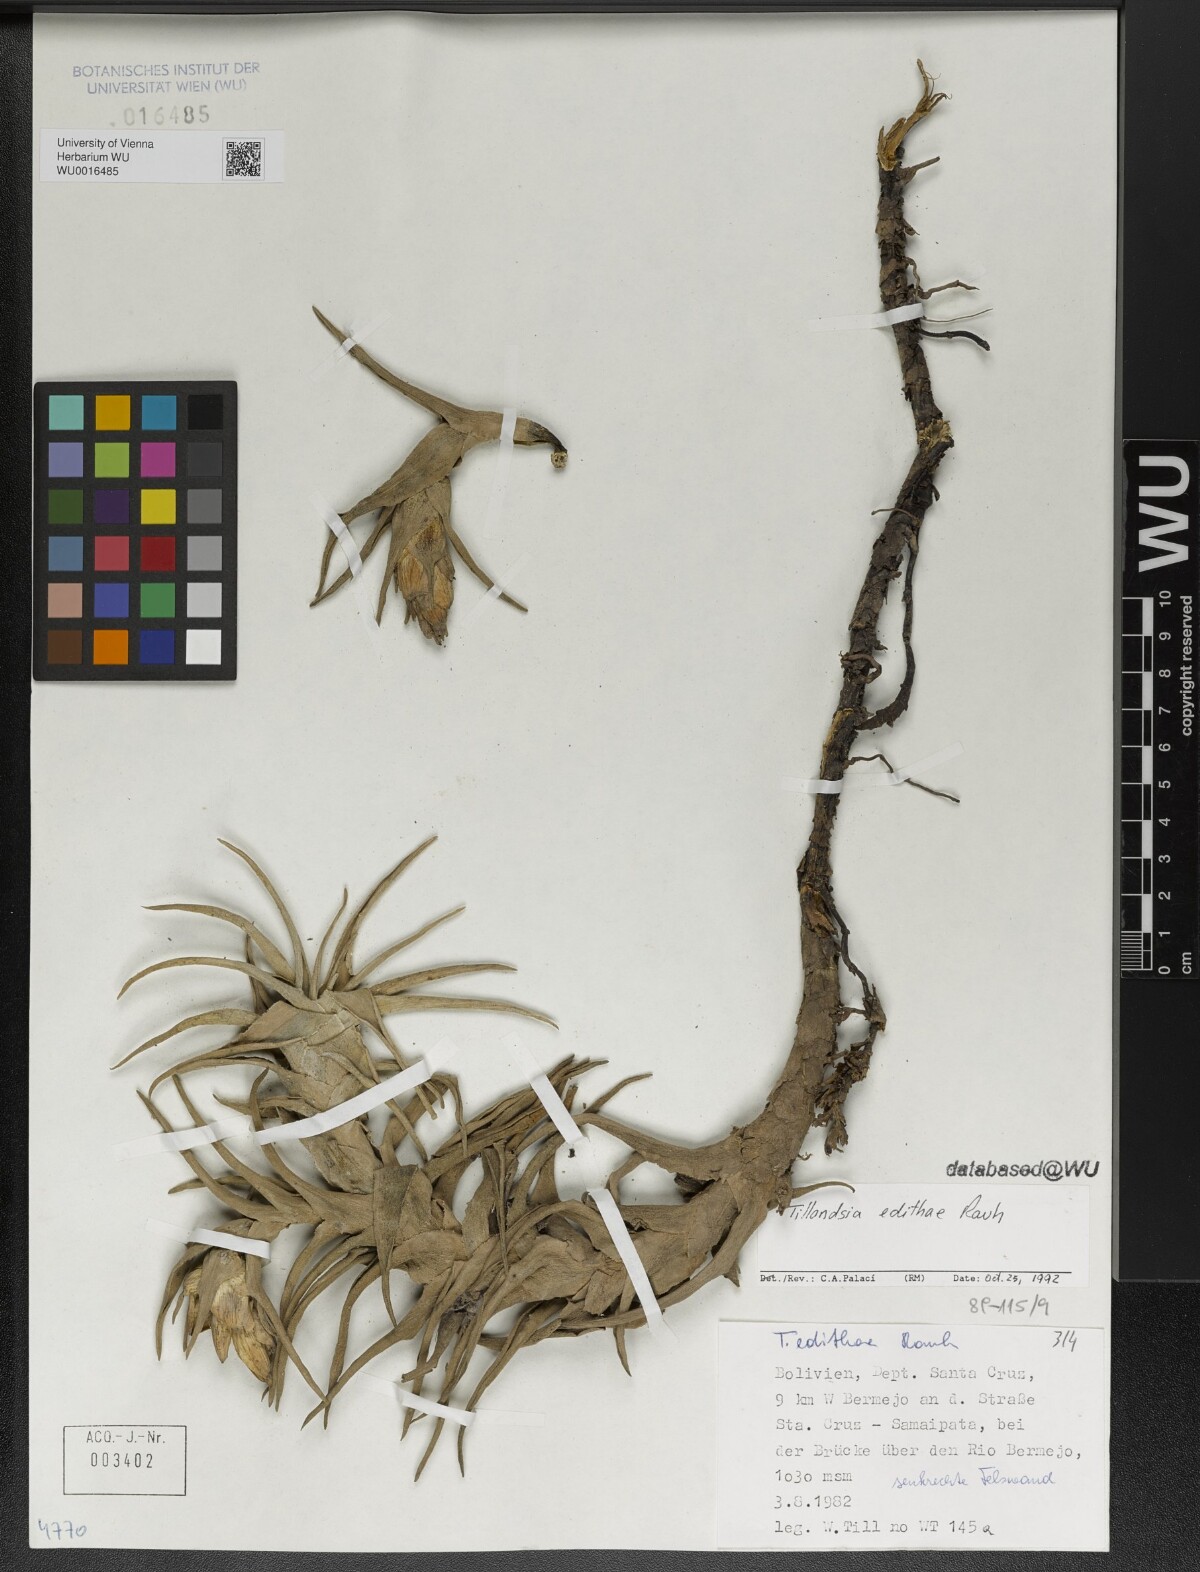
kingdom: Plantae
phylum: Tracheophyta
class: Liliopsida
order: Poales
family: Bromeliaceae
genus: Tillandsia
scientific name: Tillandsia edithae
